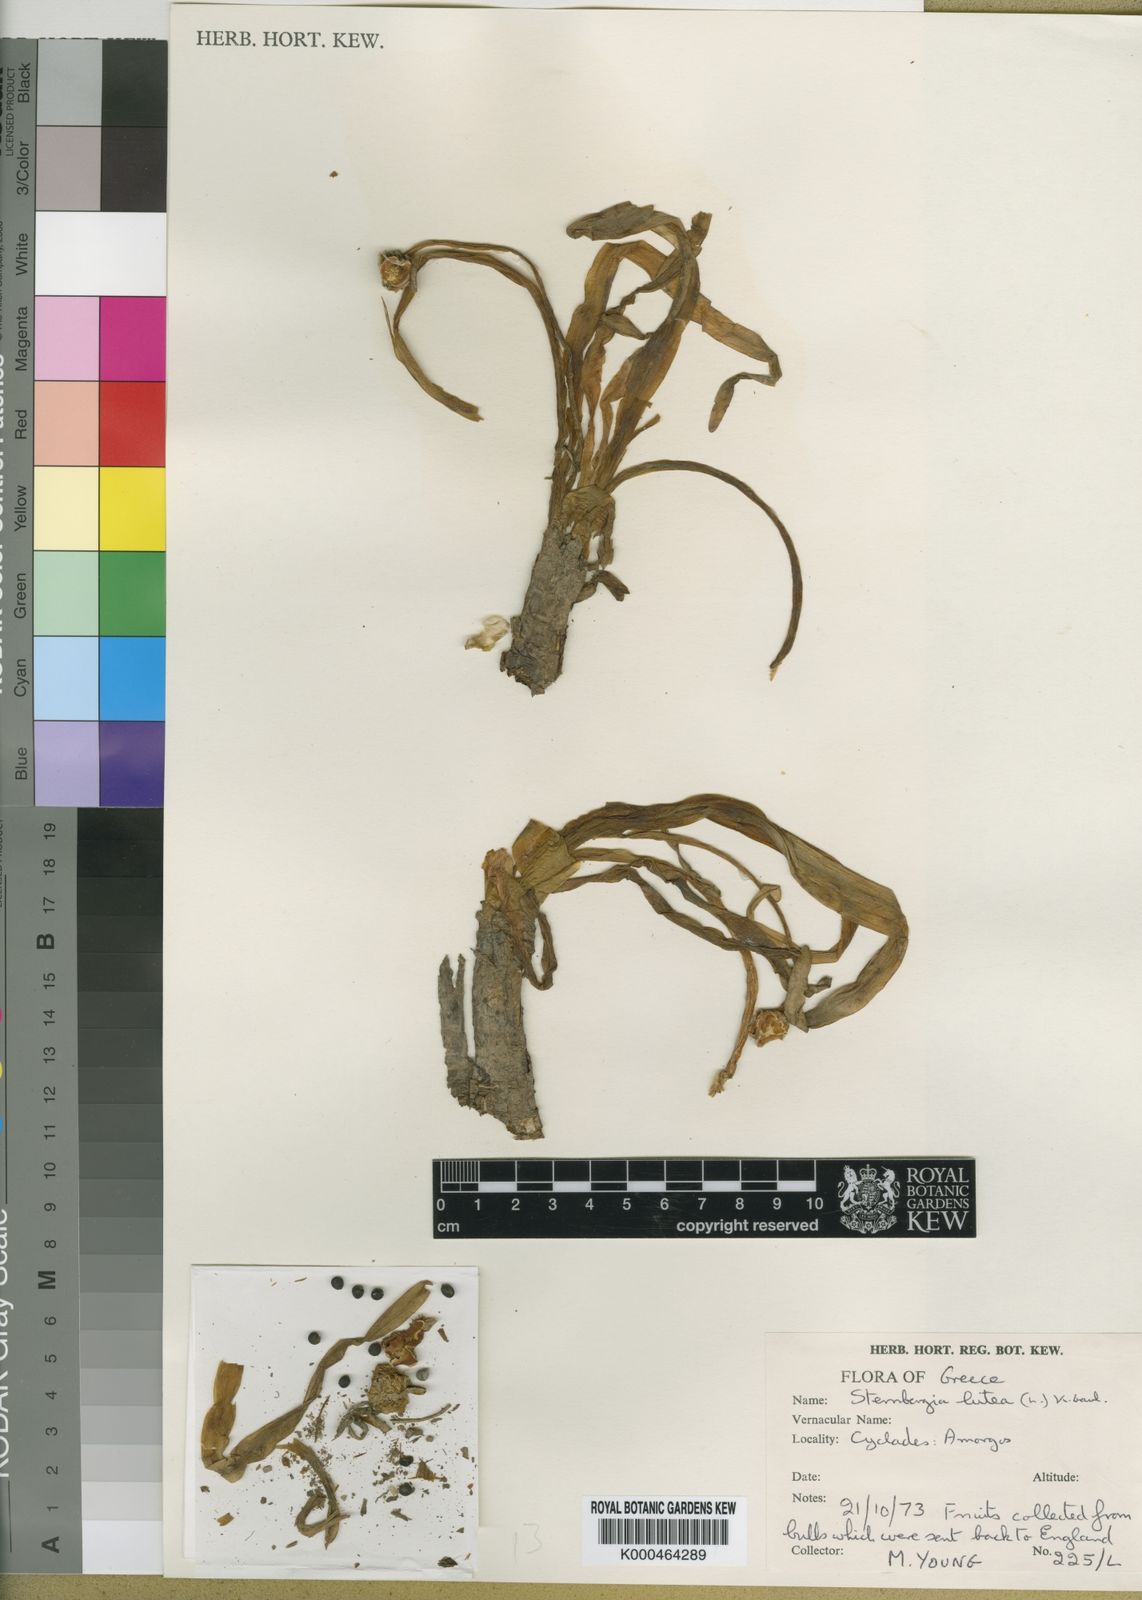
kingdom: Plantae
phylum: Tracheophyta
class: Liliopsida
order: Asparagales
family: Amaryllidaceae
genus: Sternbergia
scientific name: Sternbergia
